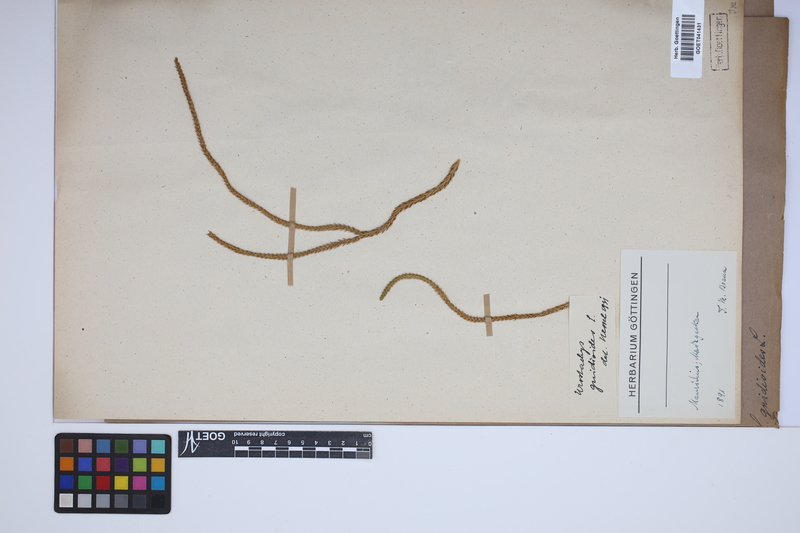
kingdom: Plantae
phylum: Tracheophyta
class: Lycopodiopsida
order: Lycopodiales
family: Lycopodiaceae
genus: Phlegmariurus
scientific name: Phlegmariurus gnidioides
